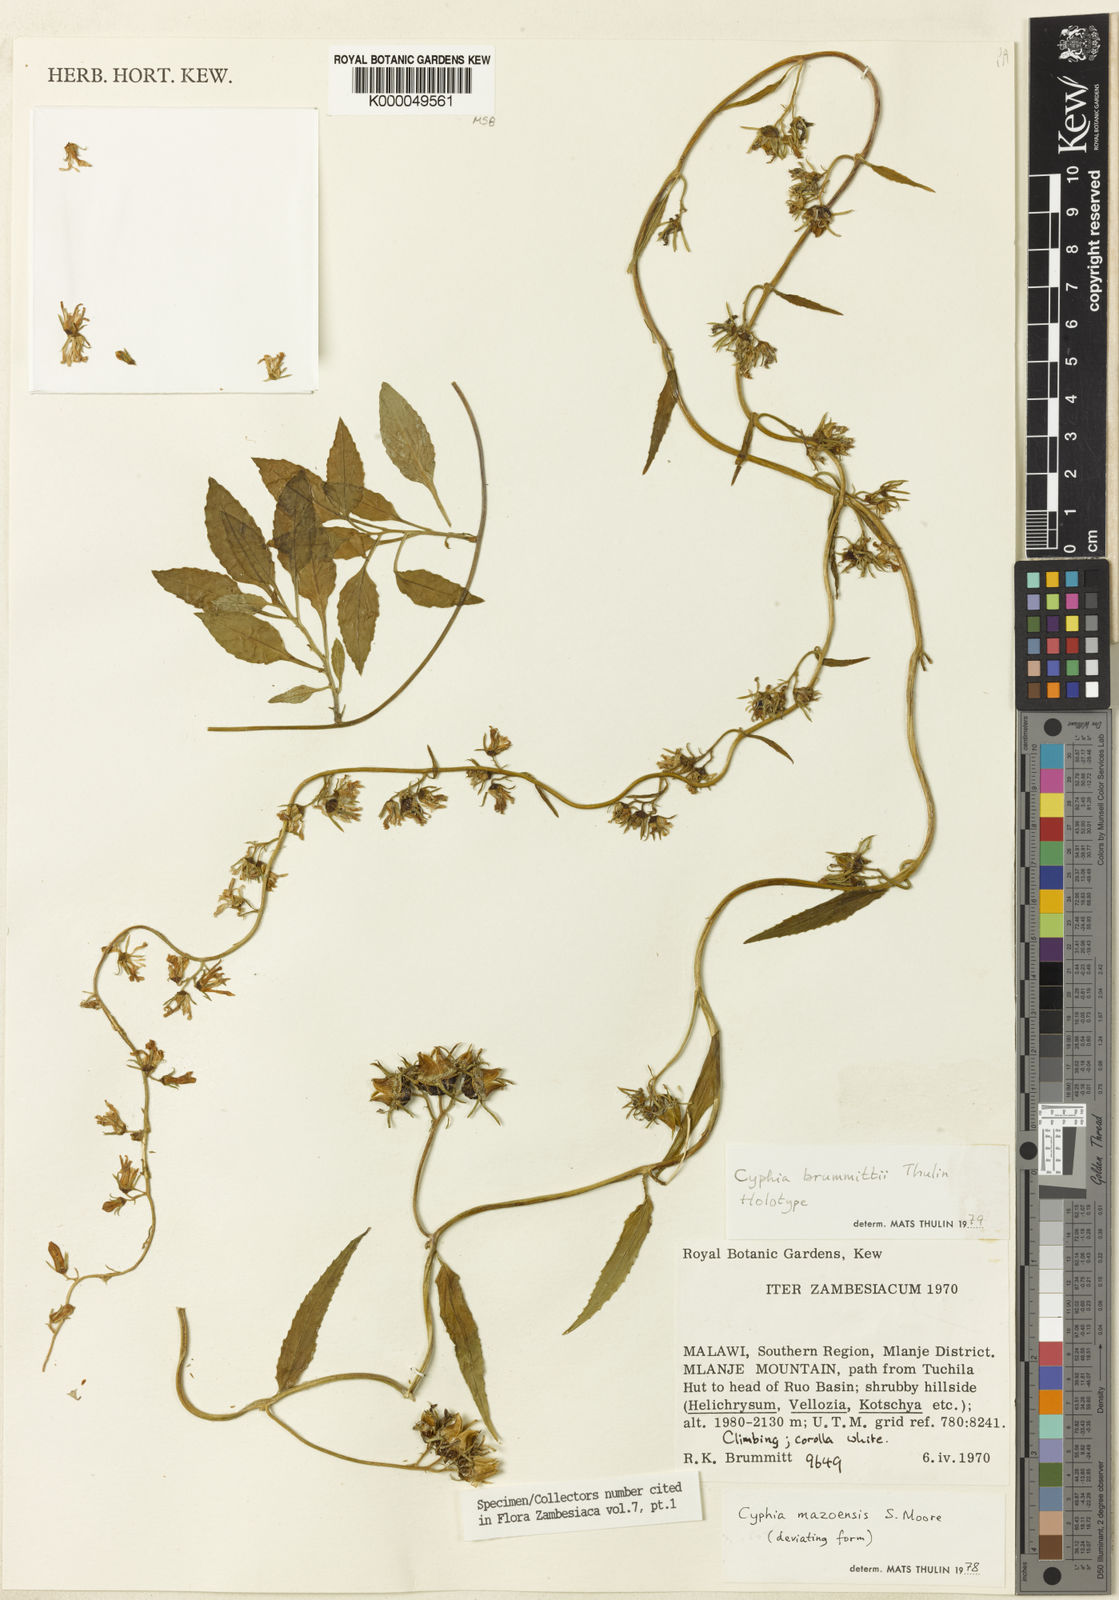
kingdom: Plantae
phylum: Tracheophyta
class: Magnoliopsida
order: Asterales
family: Campanulaceae
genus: Cyphia
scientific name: Cyphia brummittii
